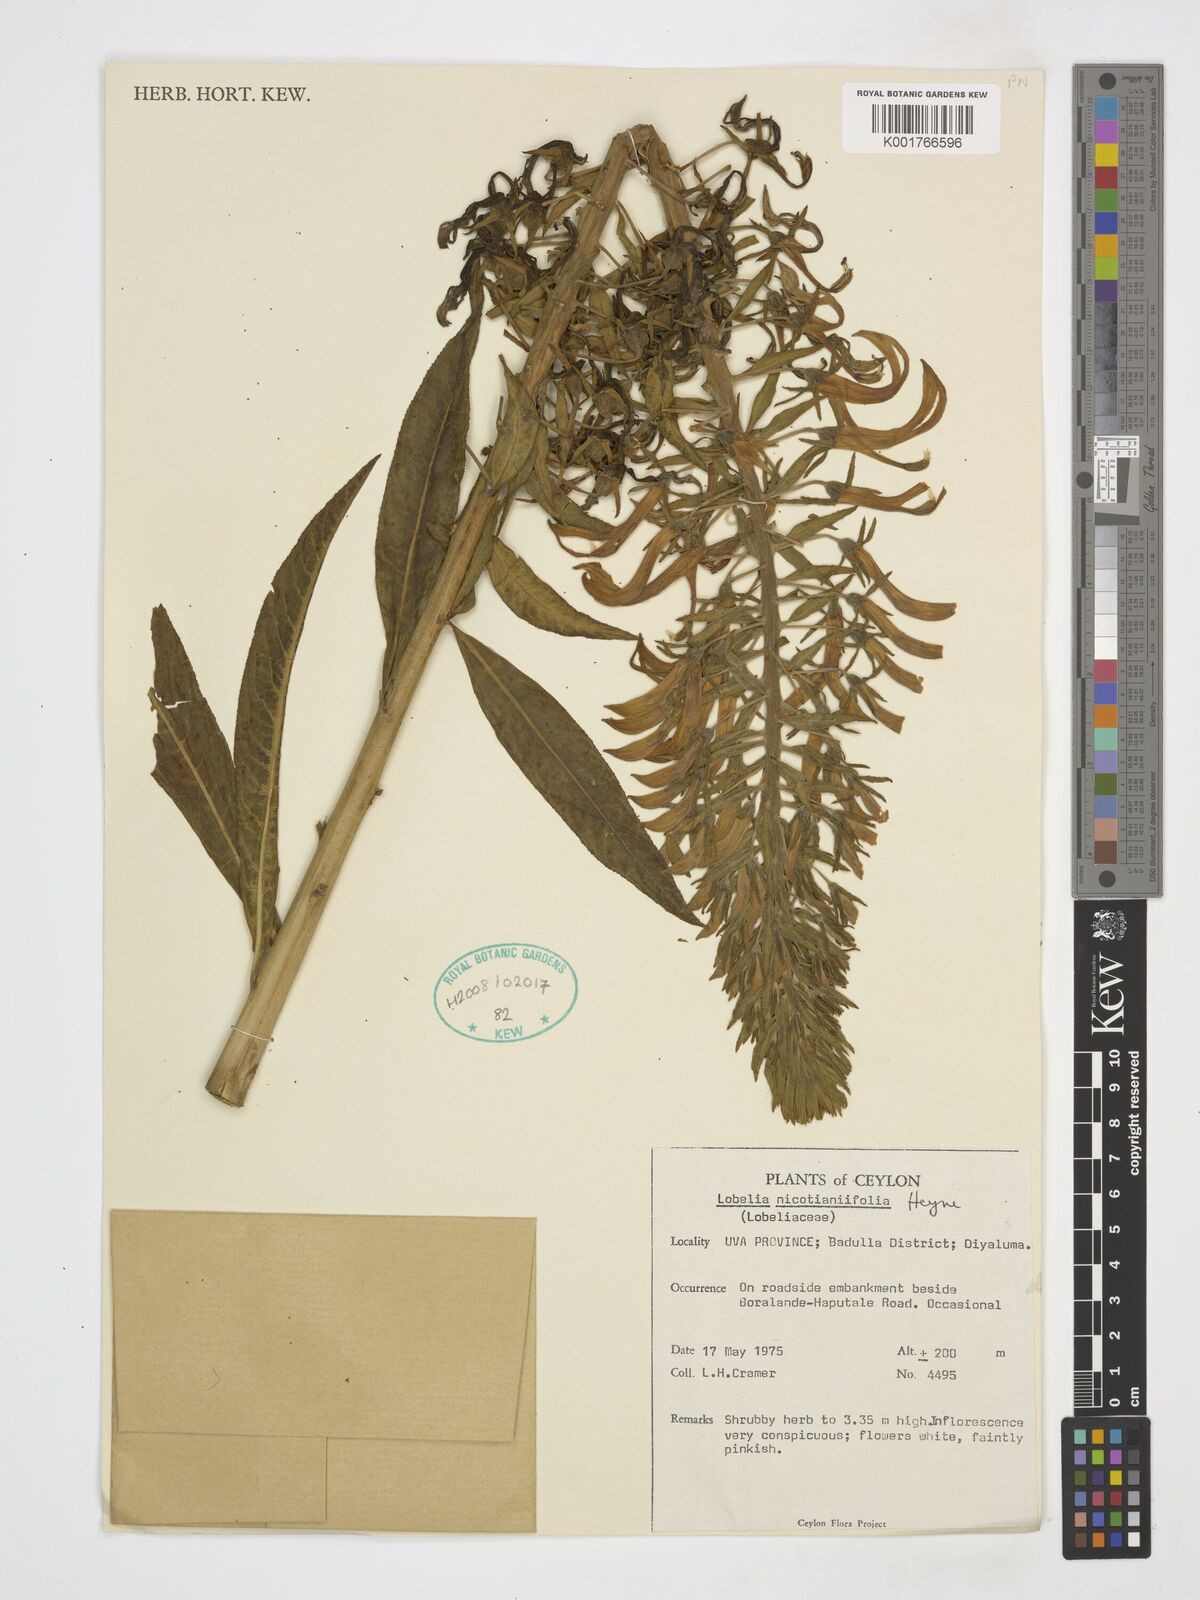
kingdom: Plantae
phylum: Tracheophyta
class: Magnoliopsida
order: Asterales
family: Campanulaceae
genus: Lobelia
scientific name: Lobelia nicotianifolia
